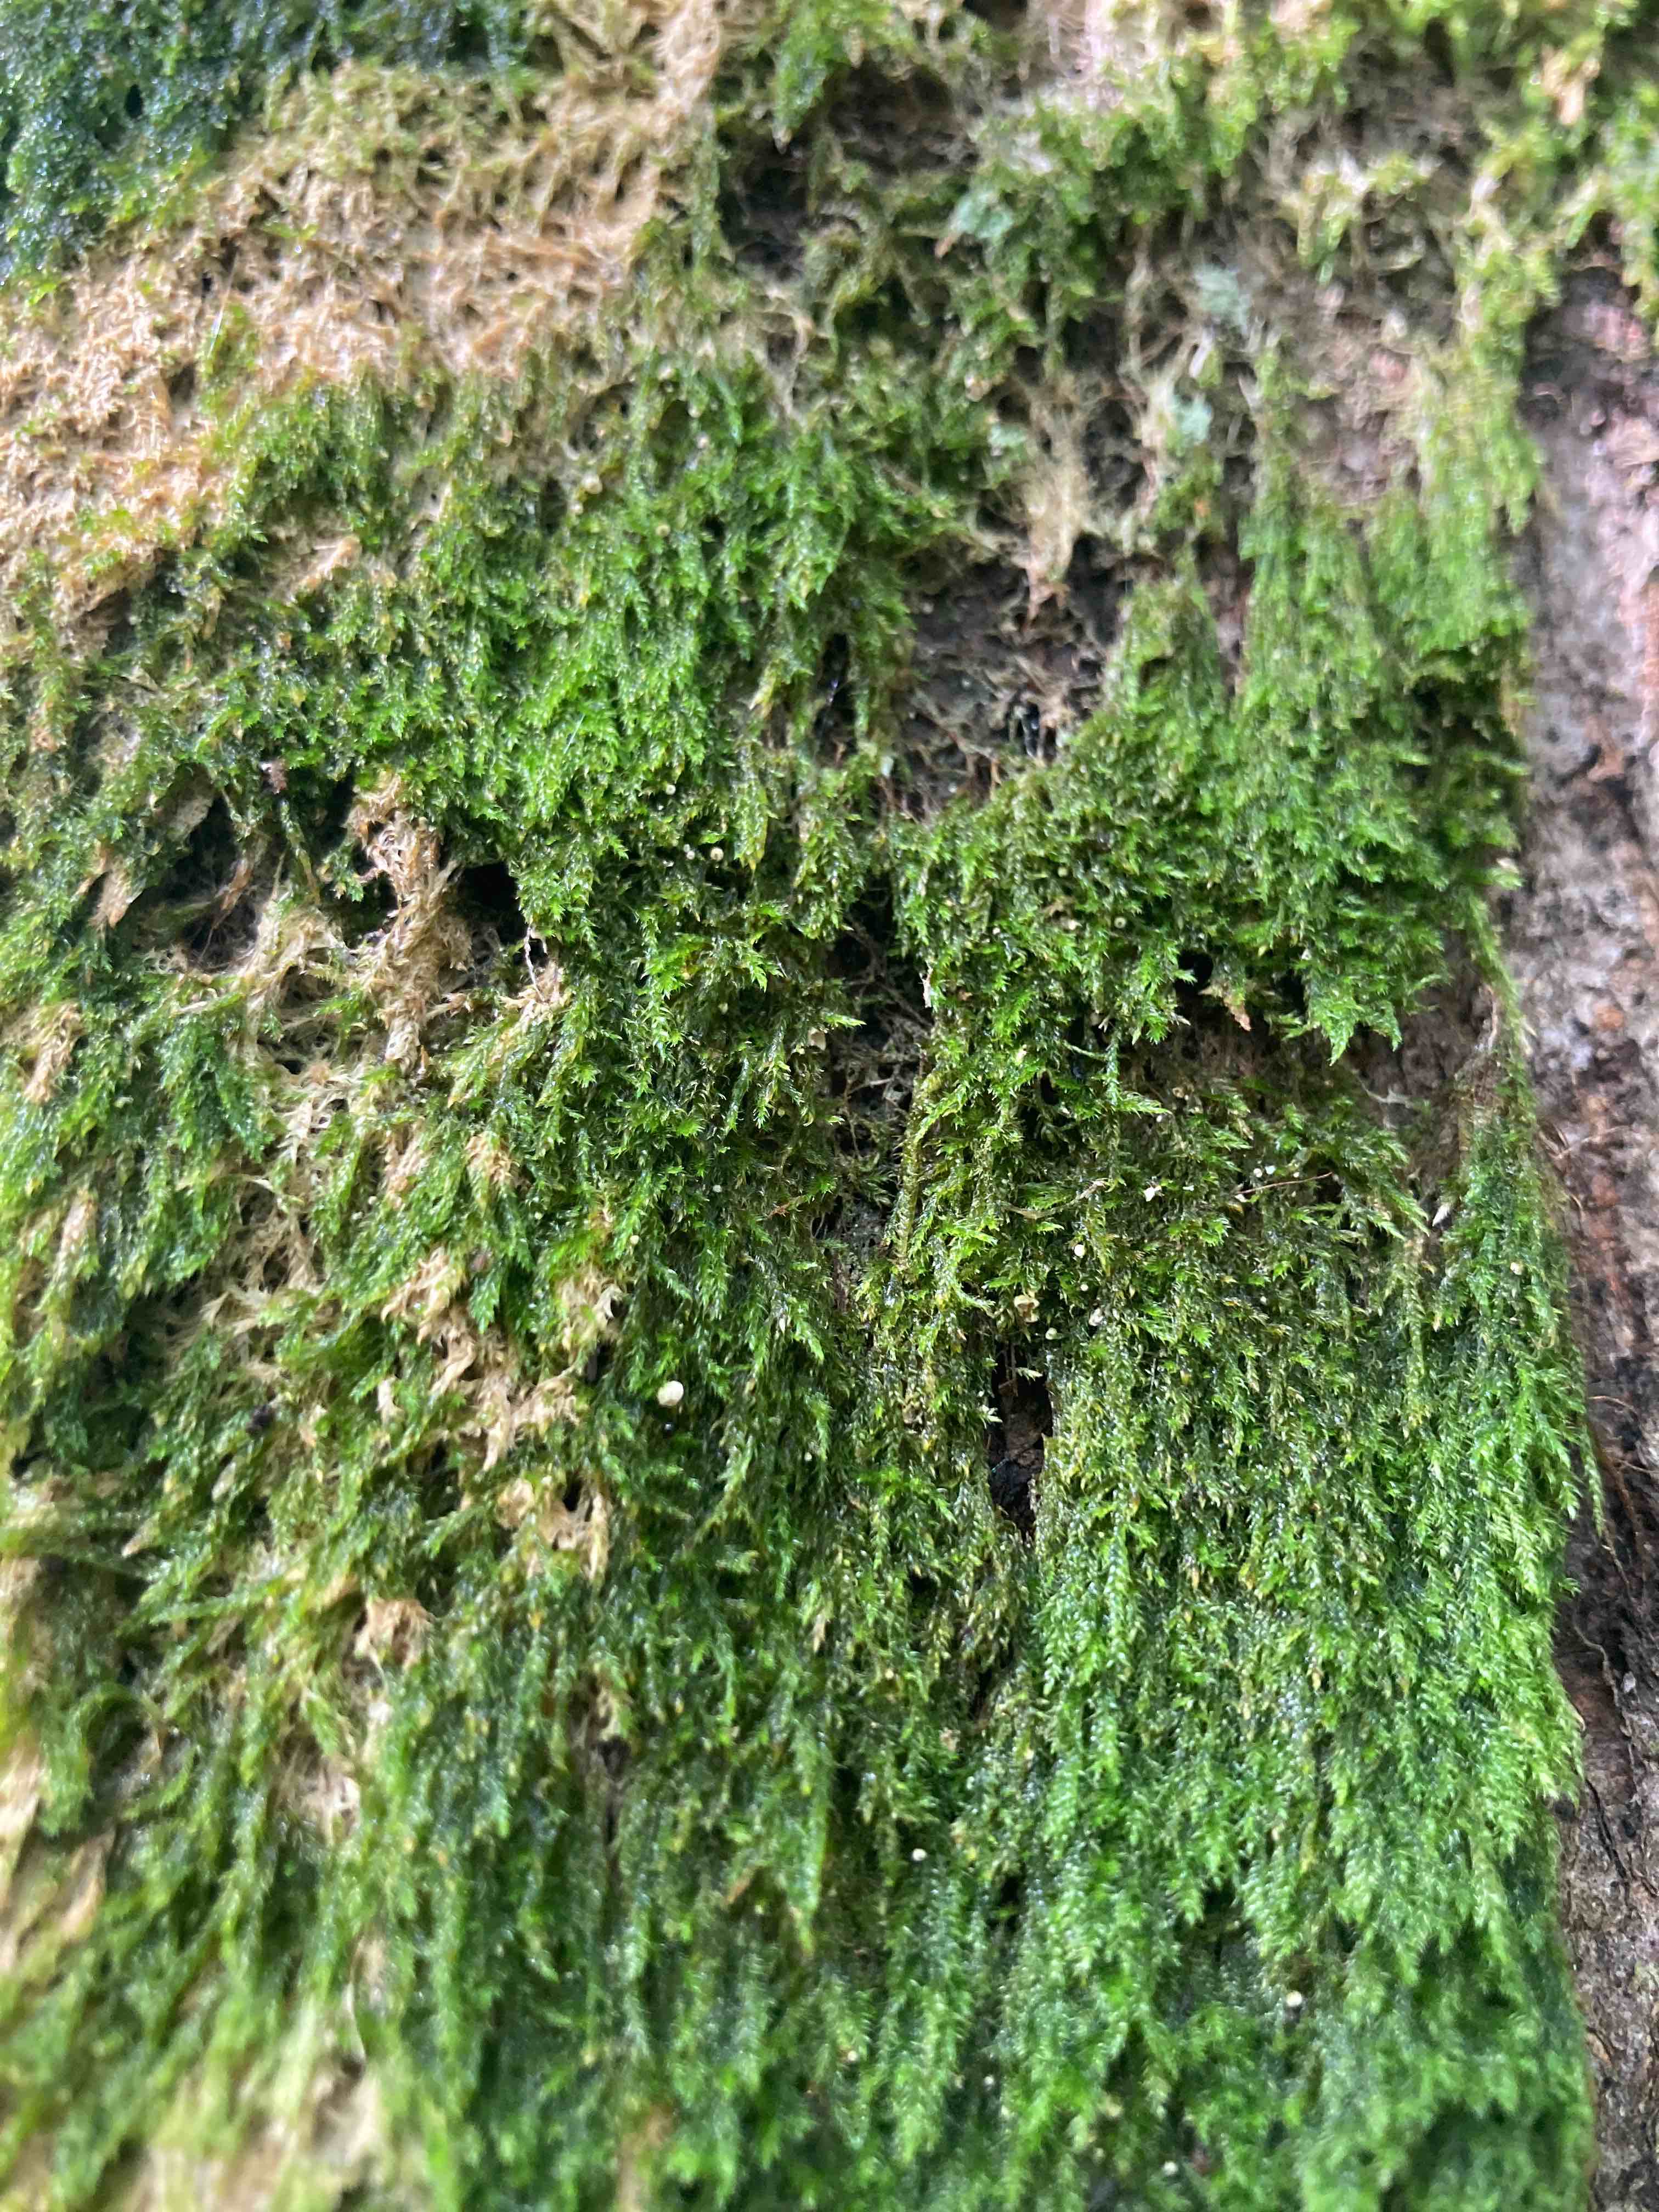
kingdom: Fungi
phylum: Basidiomycota
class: Agaricomycetes
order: Agaricales
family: Chromocyphellaceae
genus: Chromocyphella
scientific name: Chromocyphella muscicola
